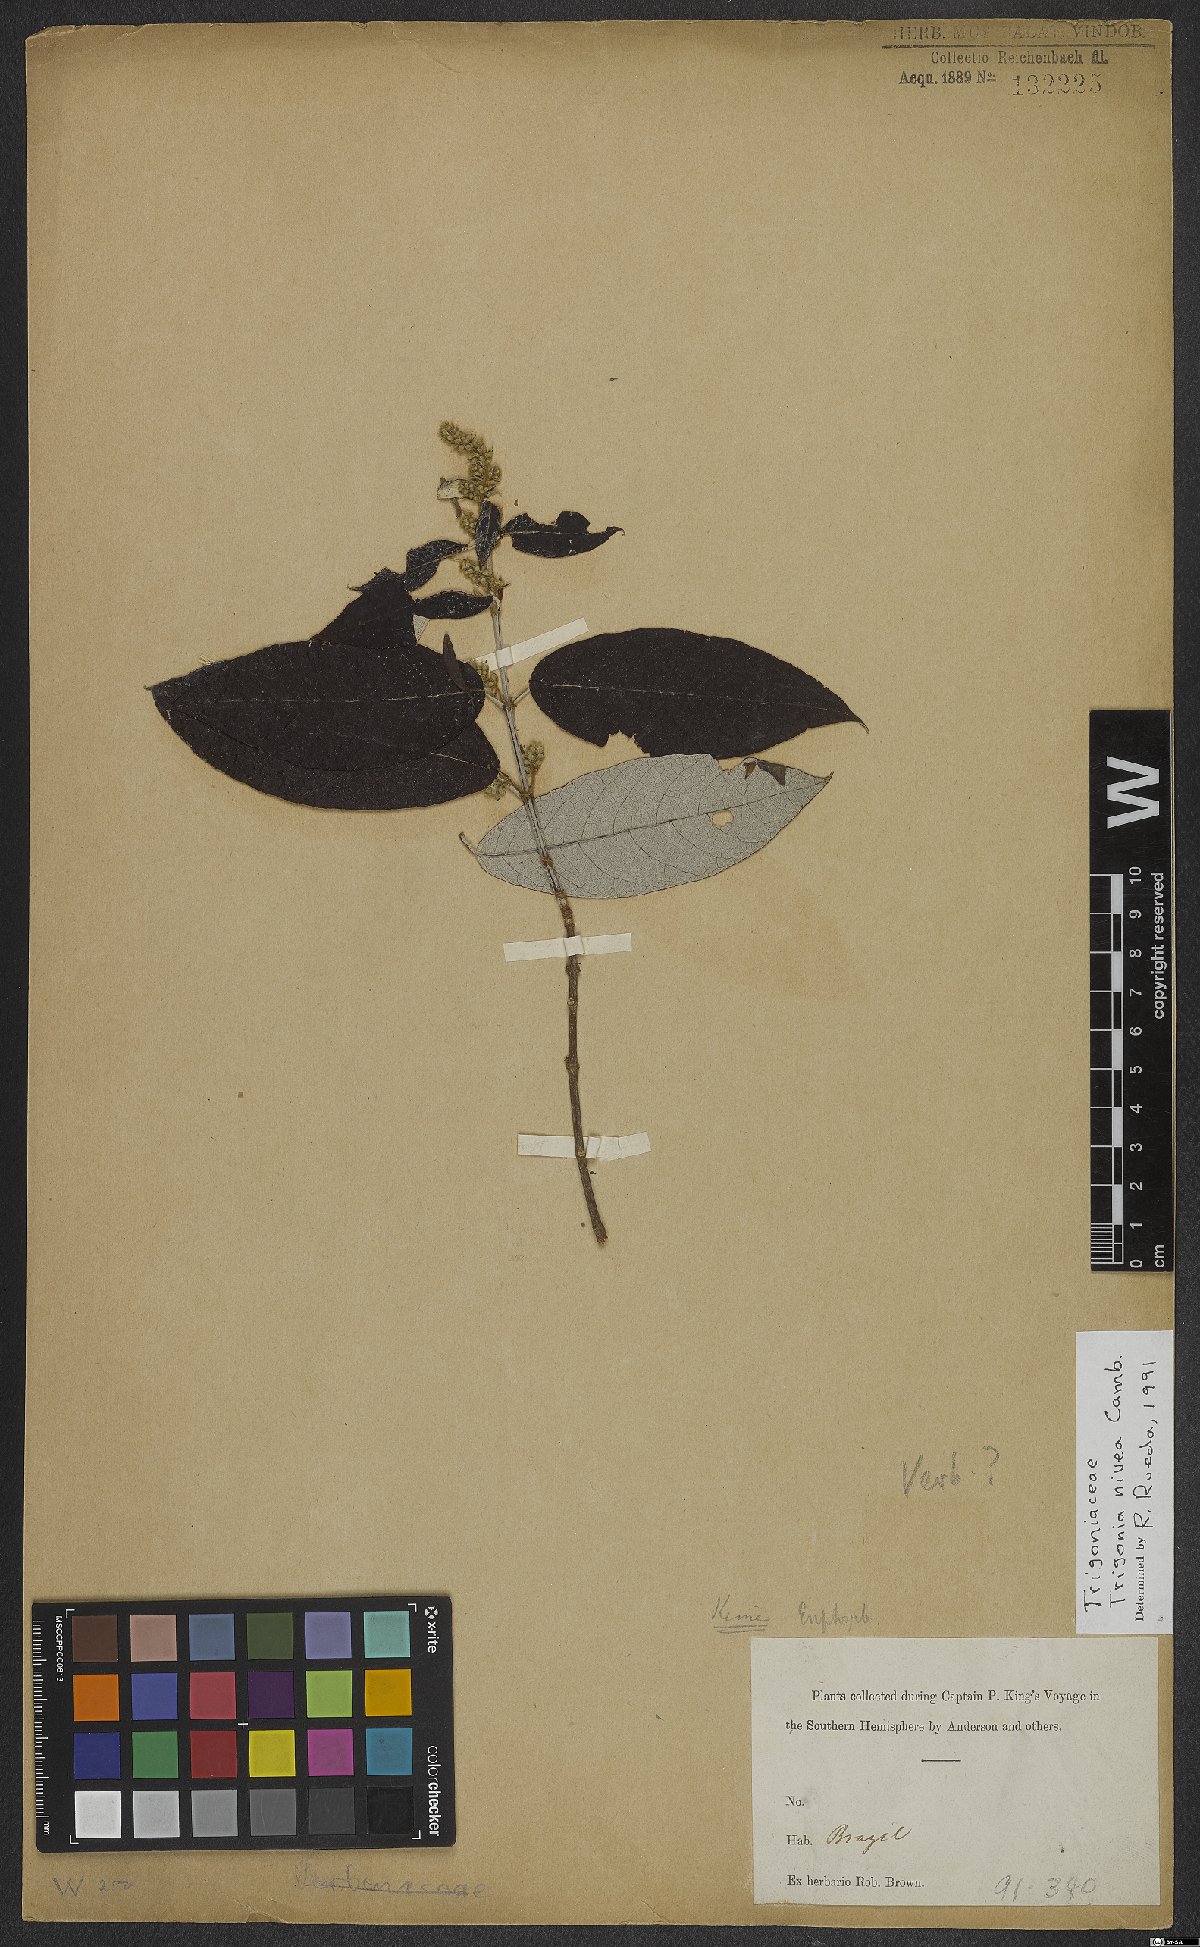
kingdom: Plantae
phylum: Tracheophyta
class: Magnoliopsida
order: Malpighiales
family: Trigoniaceae
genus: Trigonia
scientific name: Trigonia nivea
